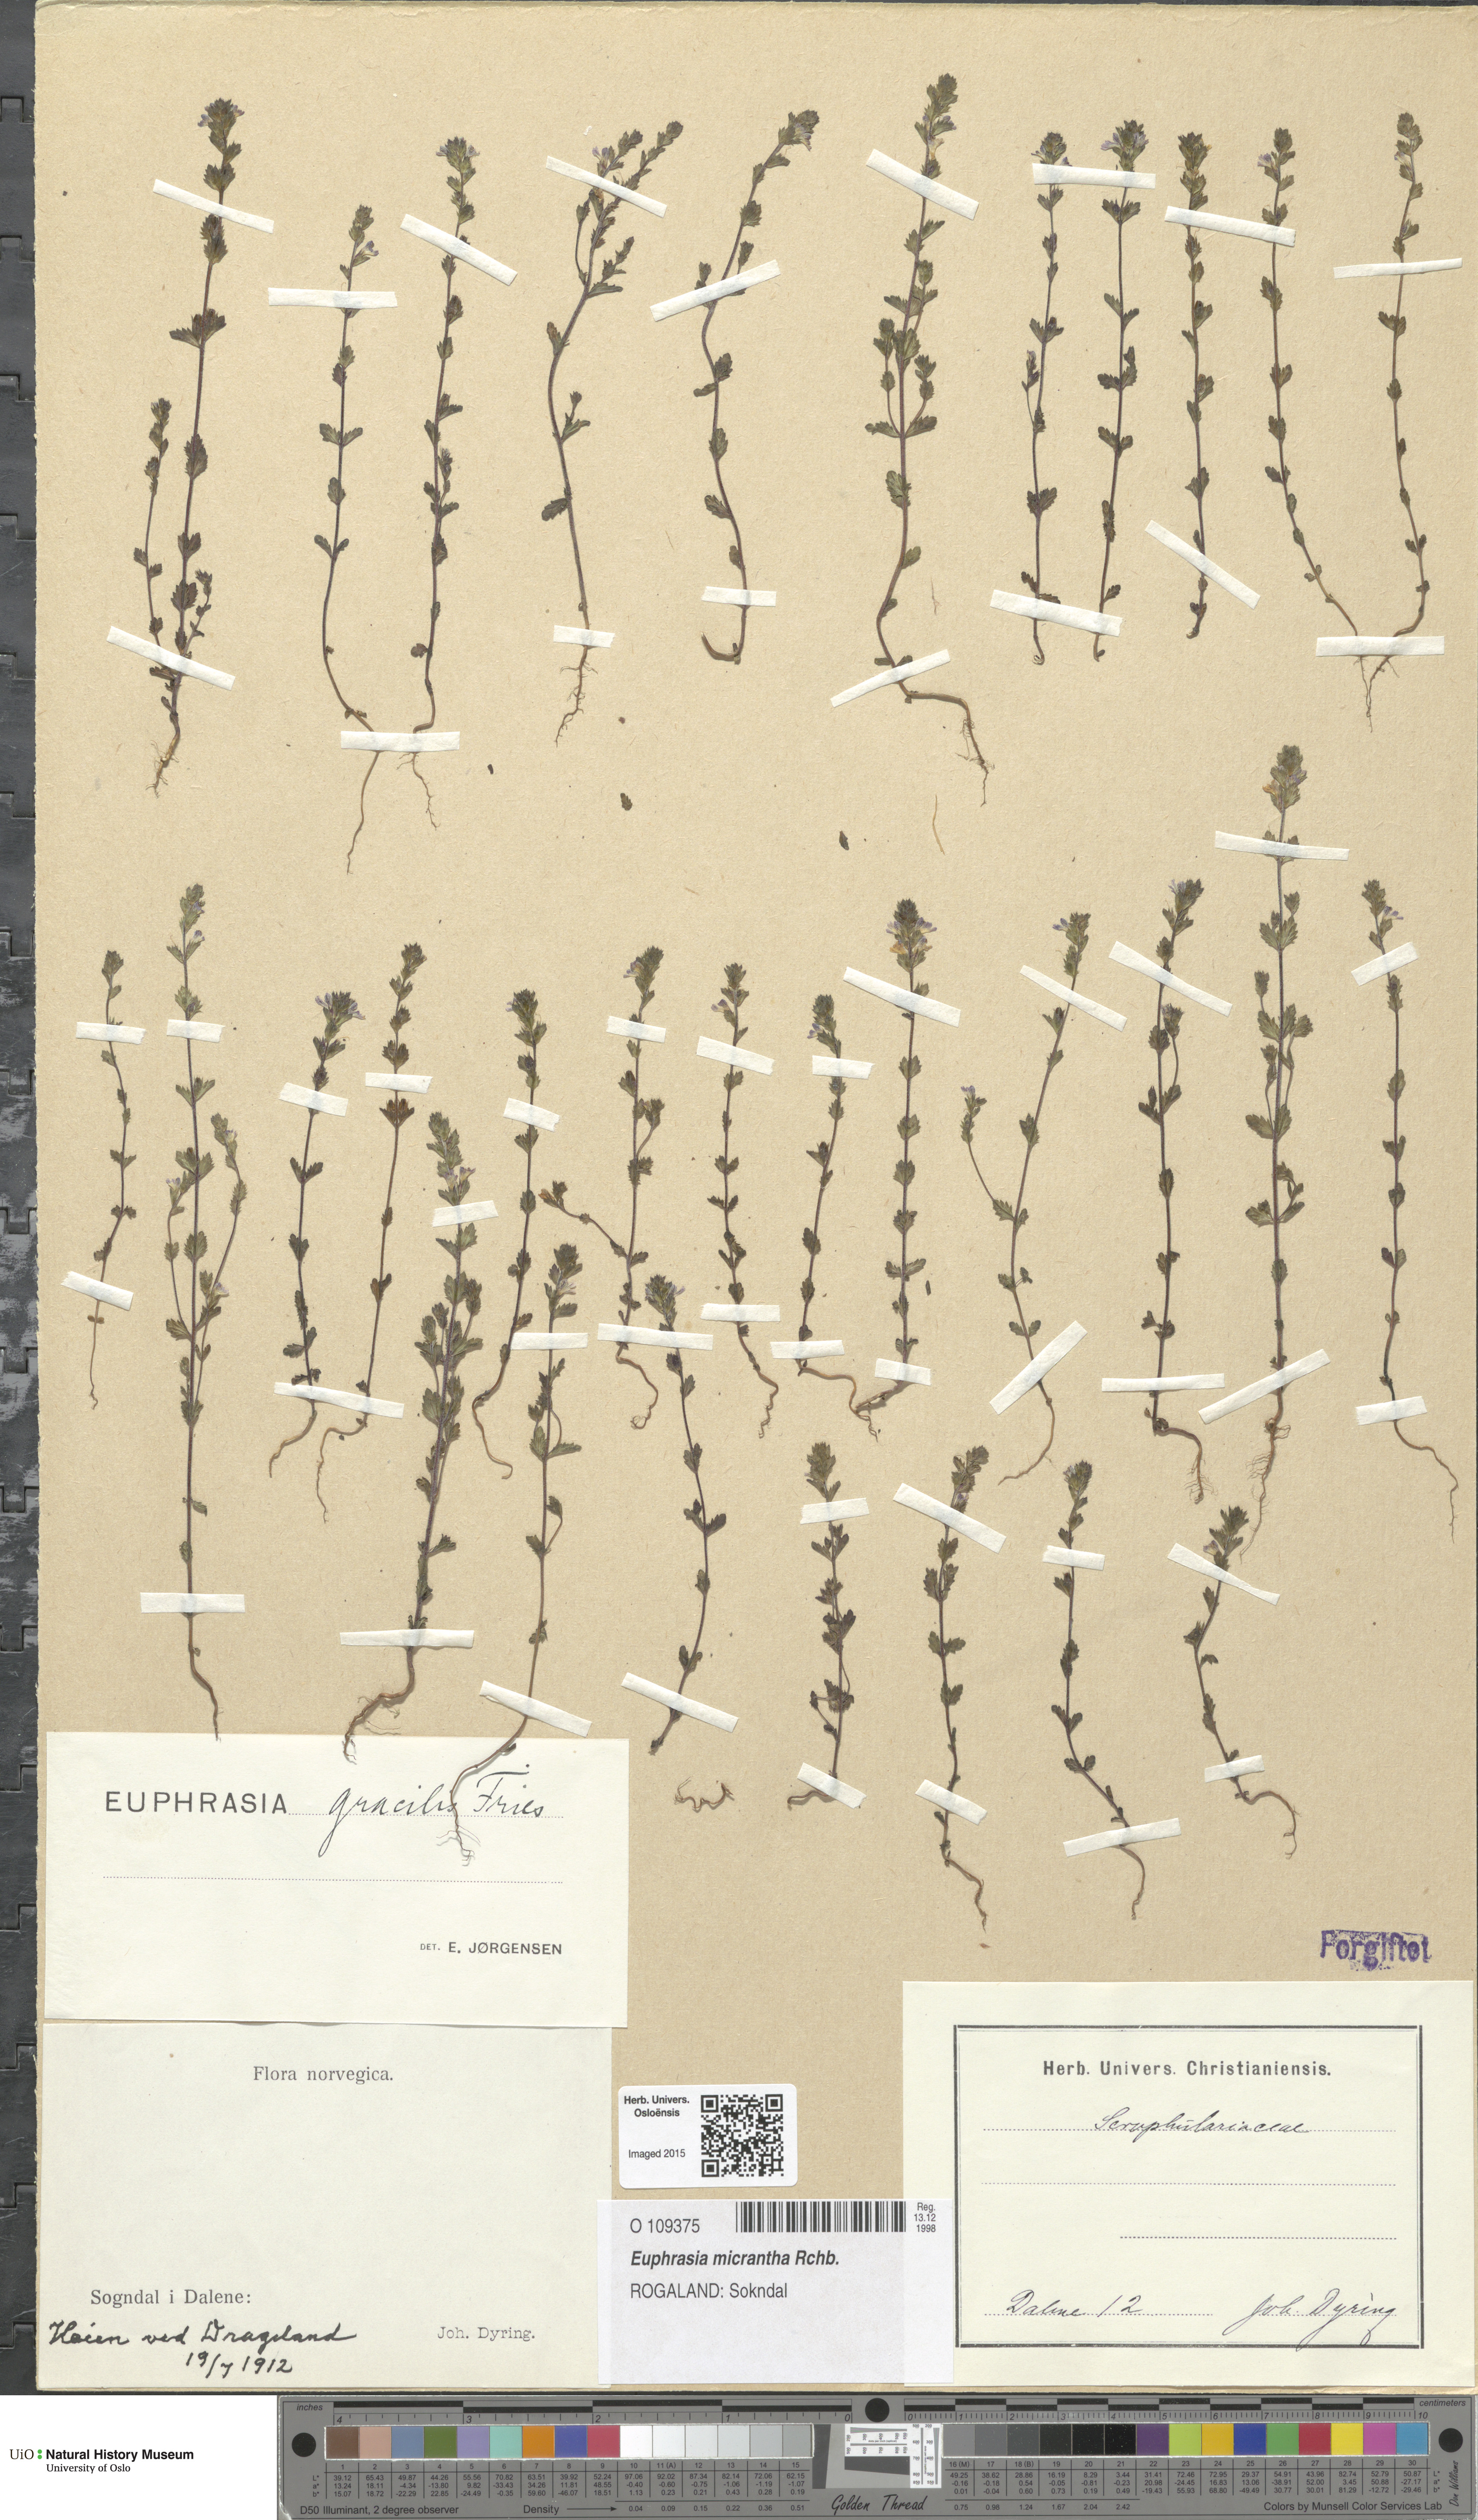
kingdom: Plantae
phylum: Tracheophyta
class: Magnoliopsida
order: Lamiales
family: Orobanchaceae
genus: Euphrasia
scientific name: Euphrasia micrantha
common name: Northern eyebright
